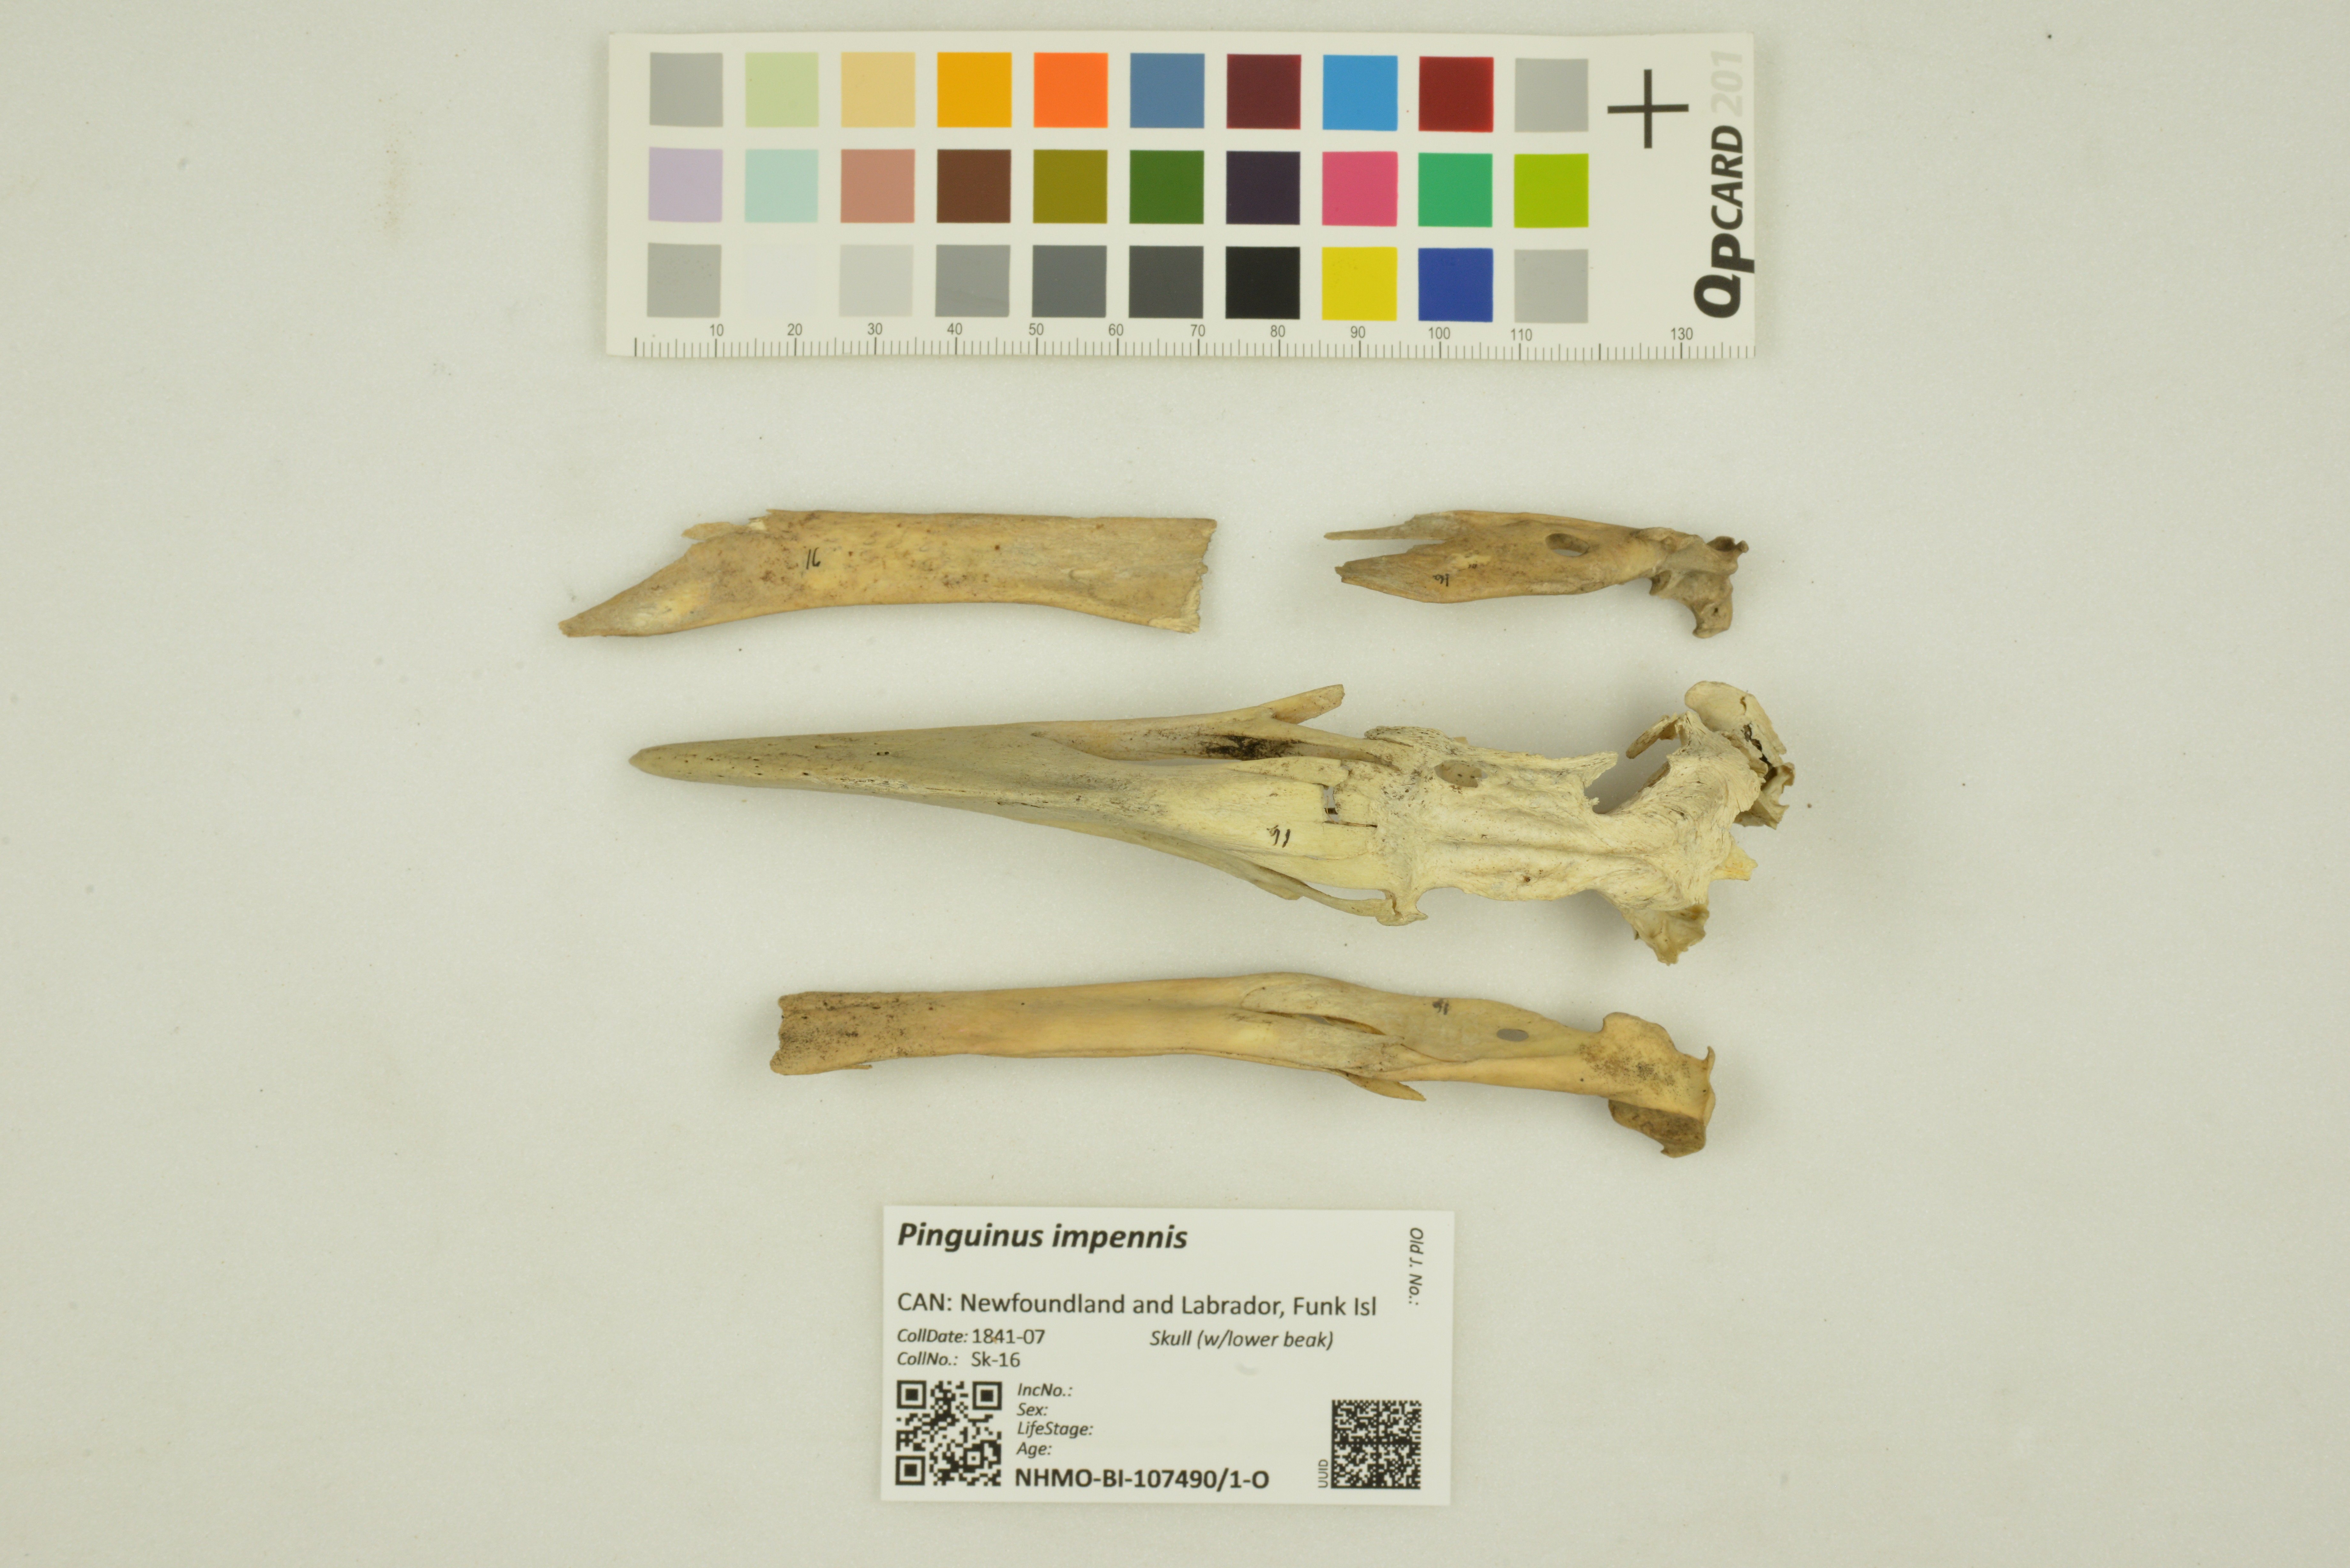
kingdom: Animalia
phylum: Chordata
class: Aves
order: Charadriiformes
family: Alcidae
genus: Pinguinus
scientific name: Pinguinus impennis
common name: Great auk
